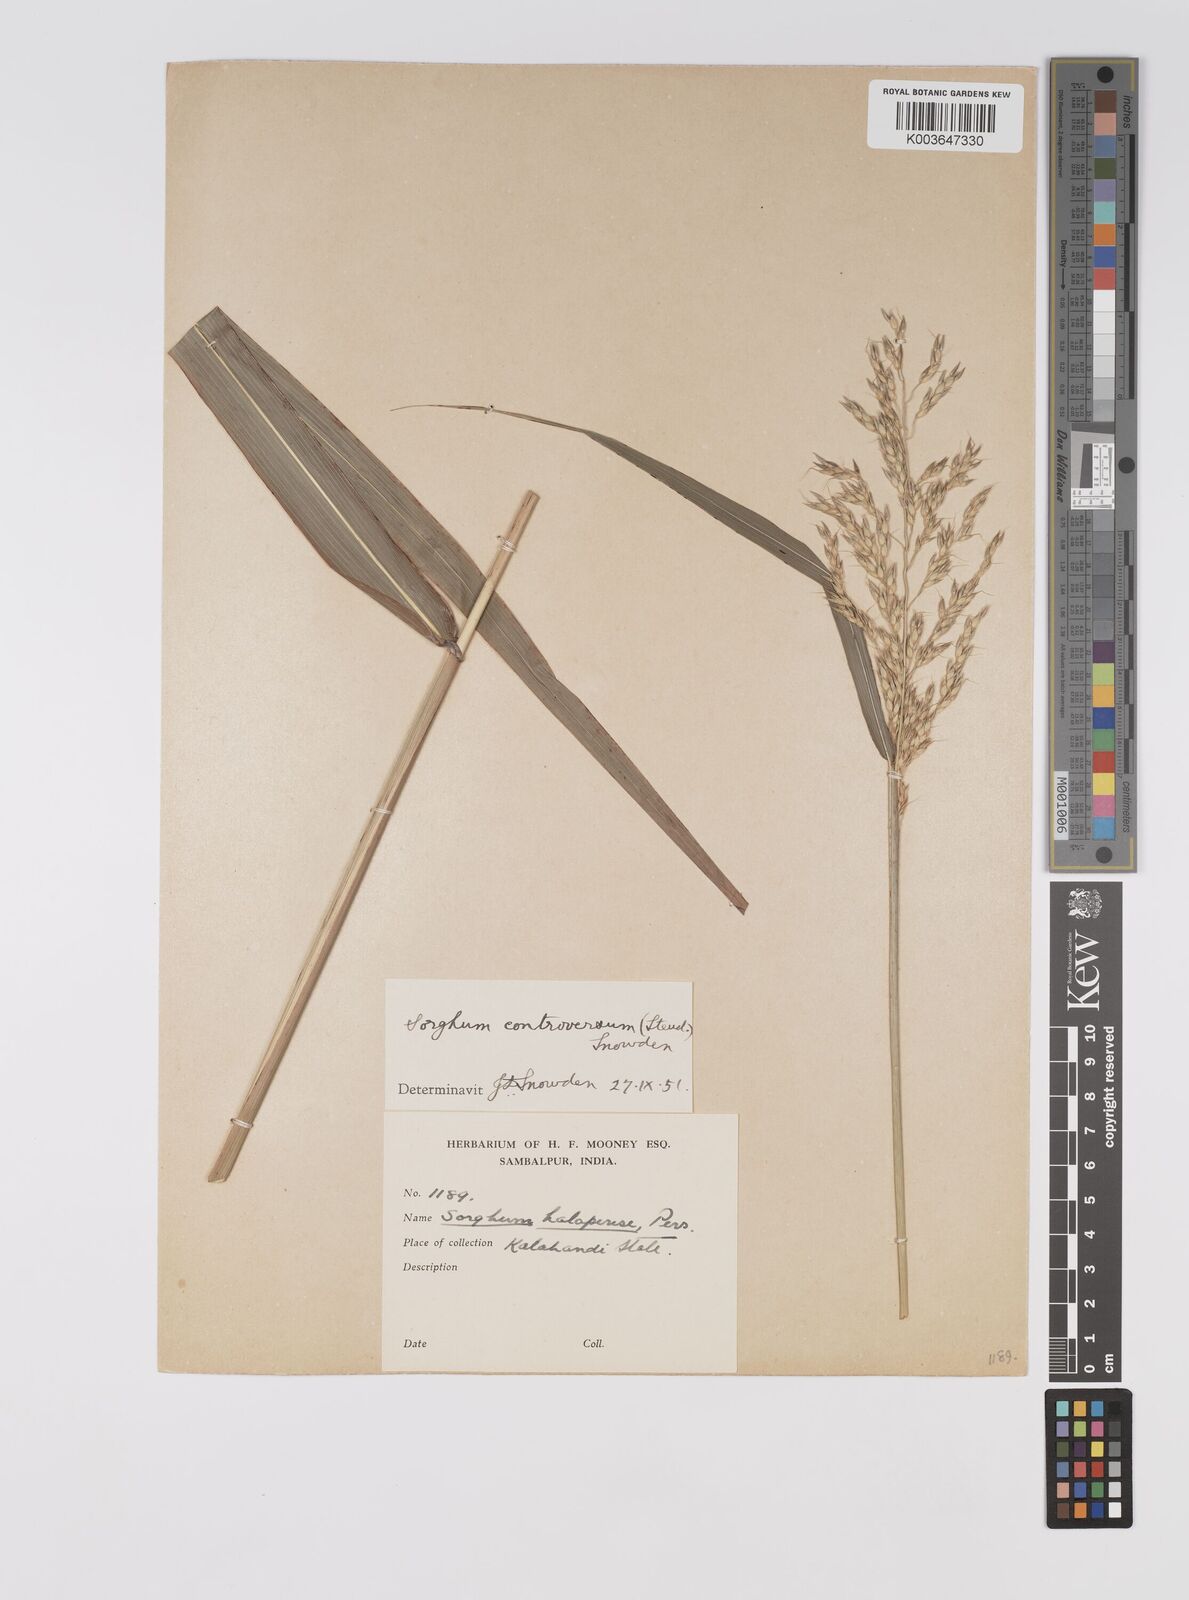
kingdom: Plantae
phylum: Tracheophyta
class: Liliopsida
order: Poales
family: Poaceae
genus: Sorghum
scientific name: Sorghum controversum
